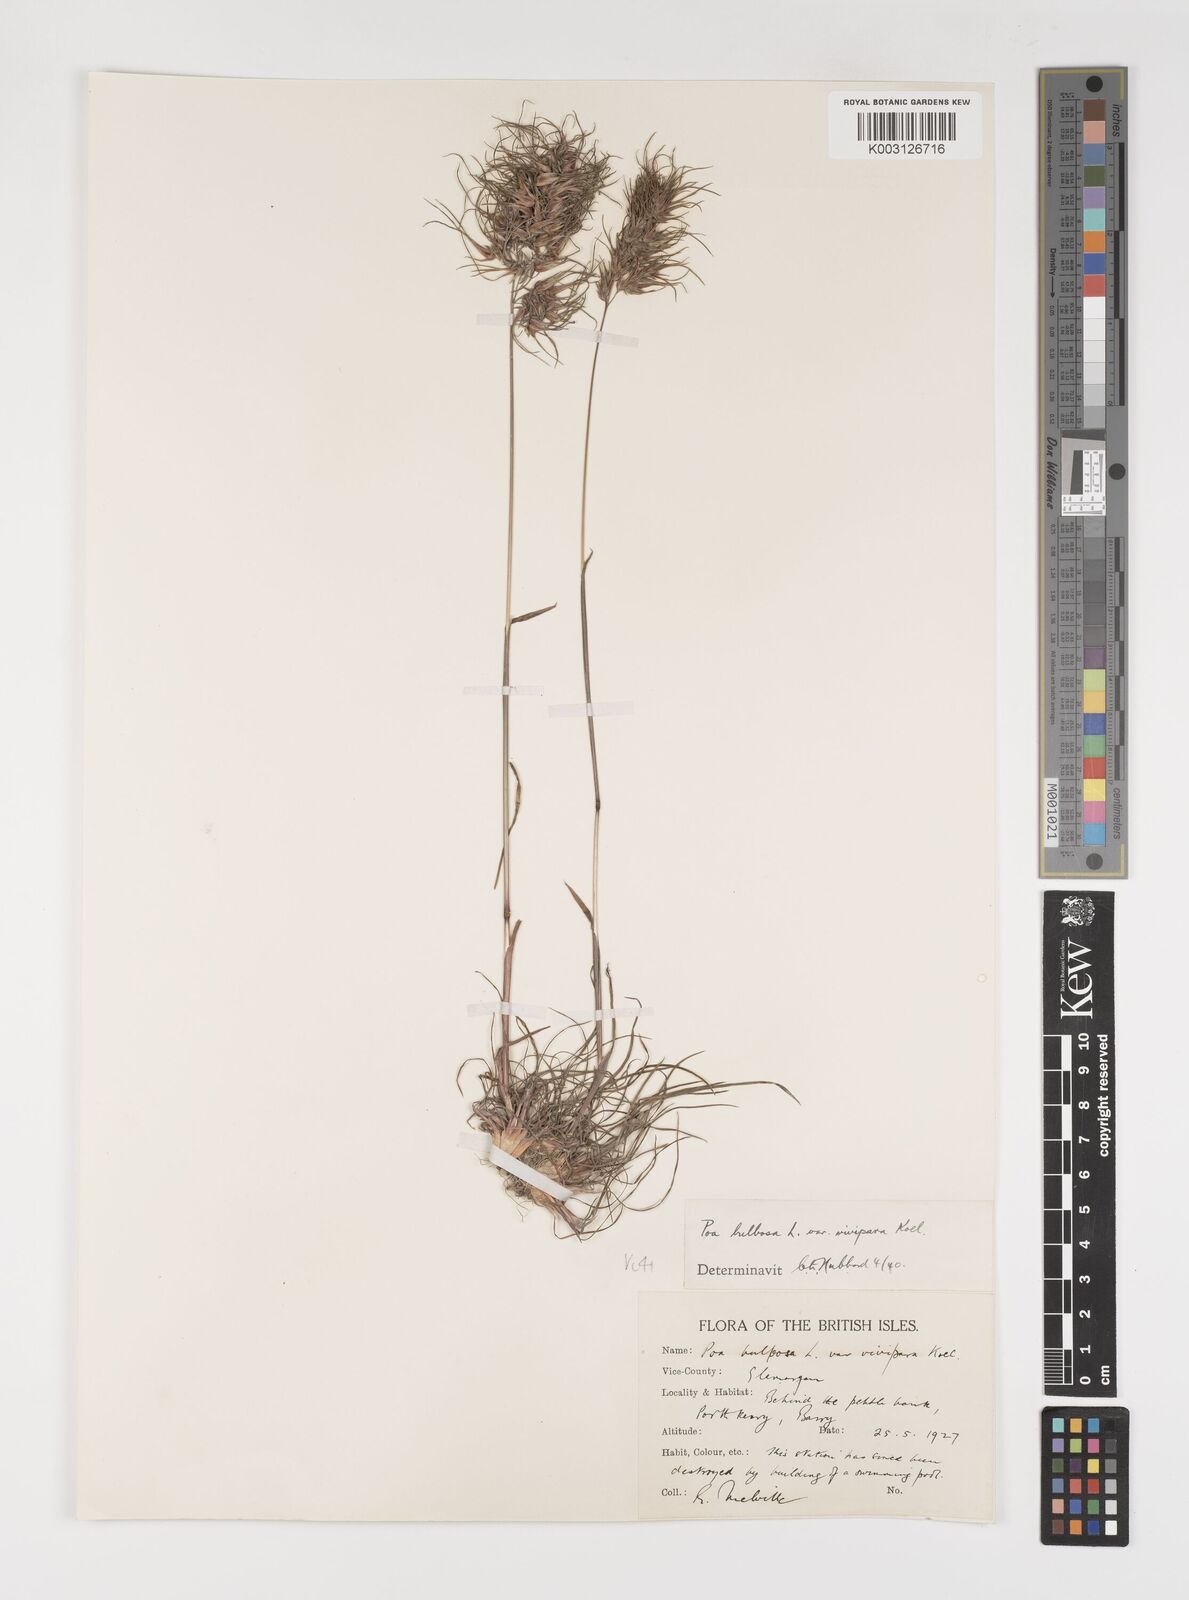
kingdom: Plantae
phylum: Tracheophyta
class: Liliopsida
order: Poales
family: Poaceae
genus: Poa
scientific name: Poa bulbosa
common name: Bulbous bluegrass
